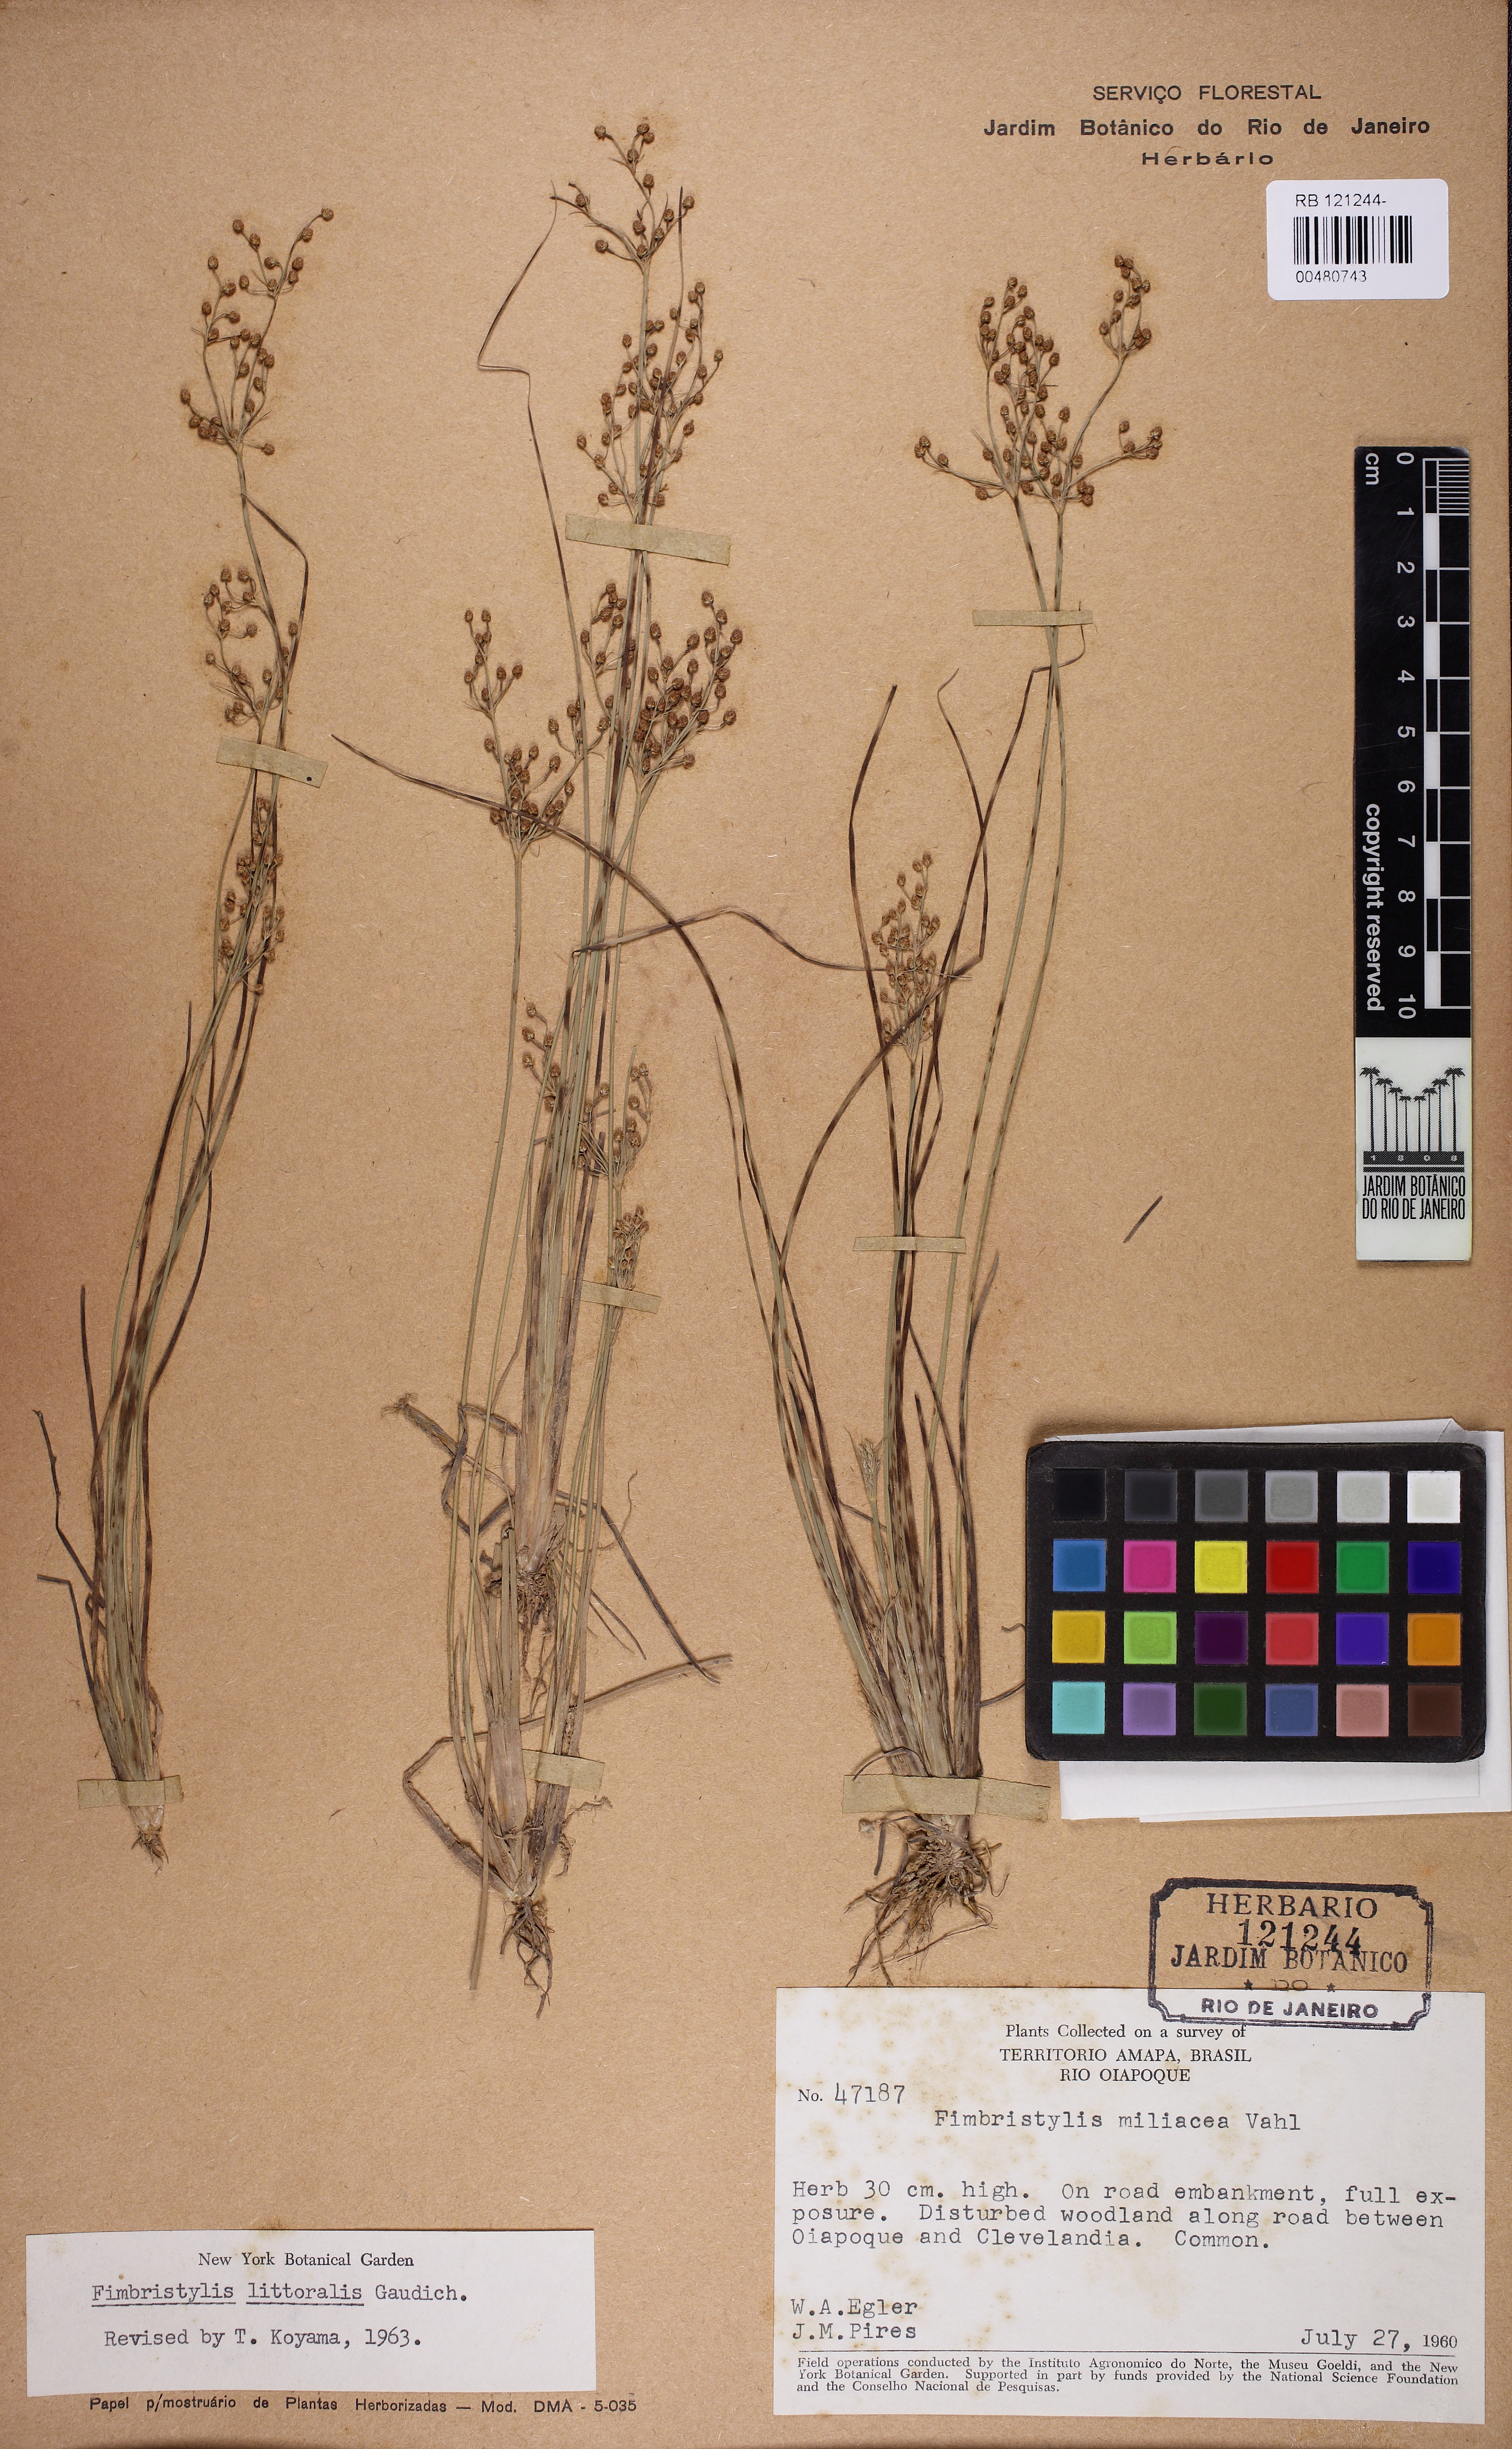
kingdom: Plantae
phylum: Tracheophyta
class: Liliopsida
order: Poales
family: Cyperaceae
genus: Fimbristylis
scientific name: Fimbristylis quinquangularis
